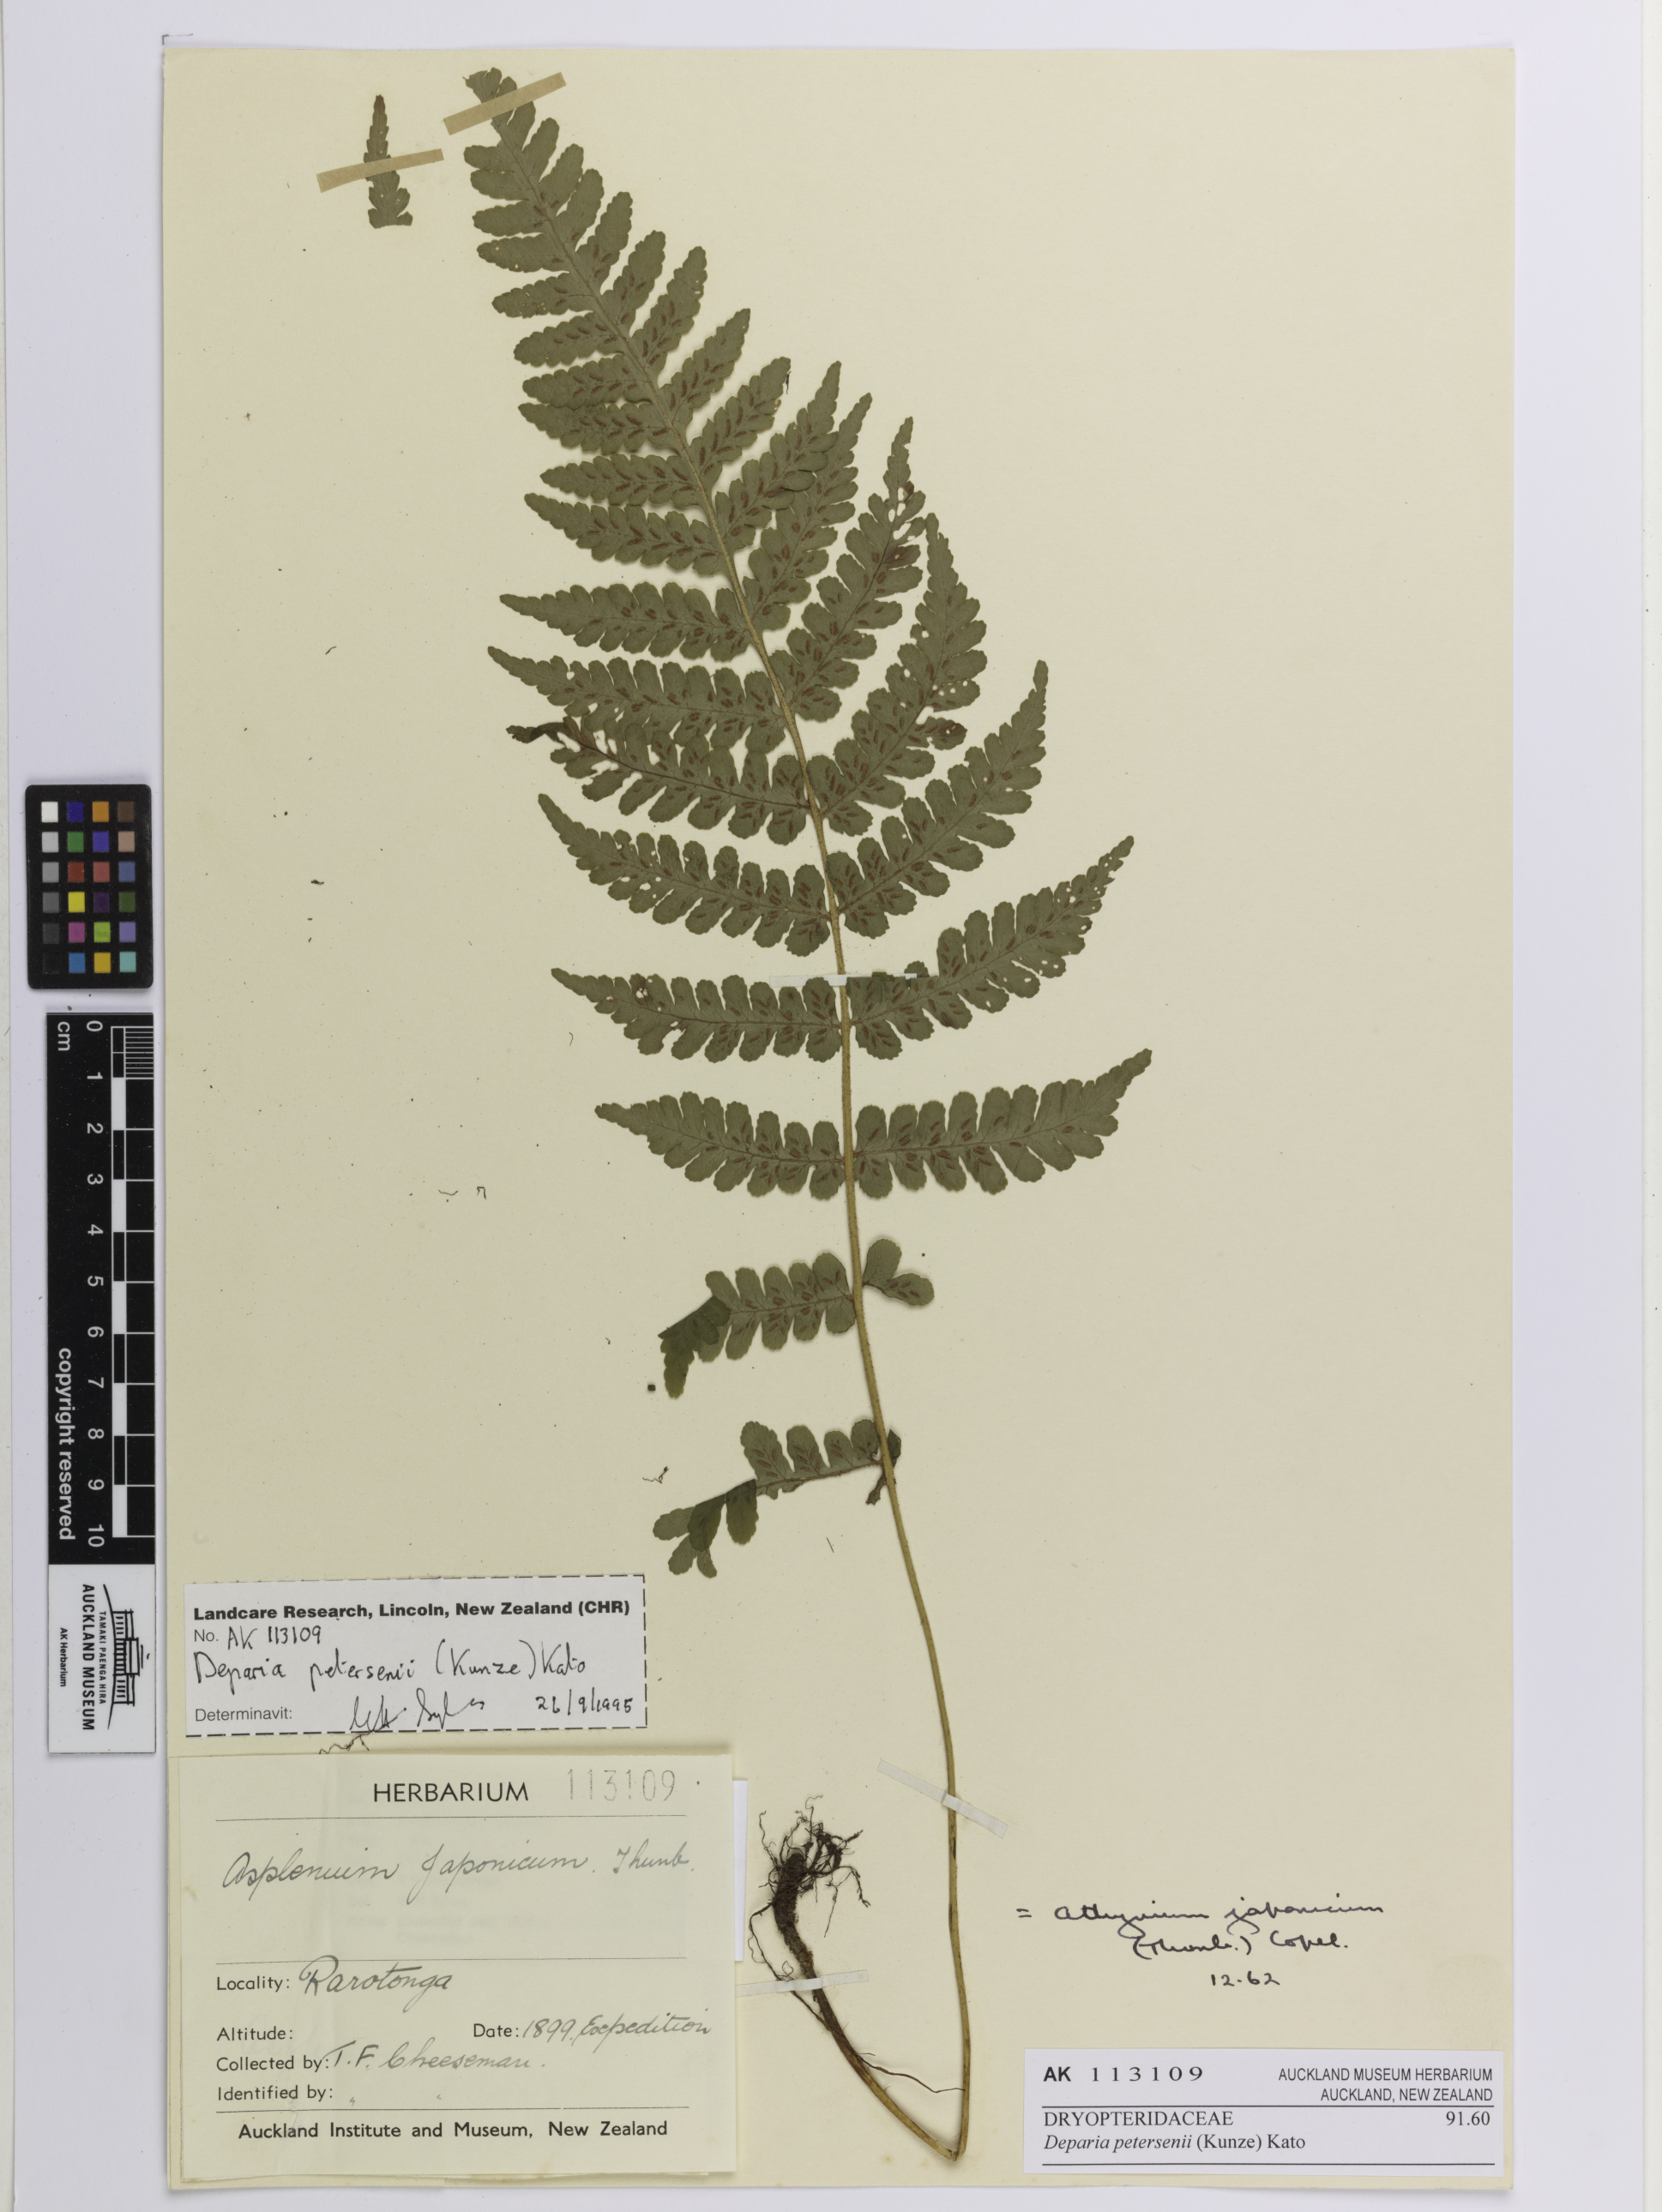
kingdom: Plantae
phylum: Tracheophyta
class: Polypodiopsida
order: Polypodiales
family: Athyriaceae
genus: Deparia
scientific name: Deparia petersenii
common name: Japanese false spleenwort
